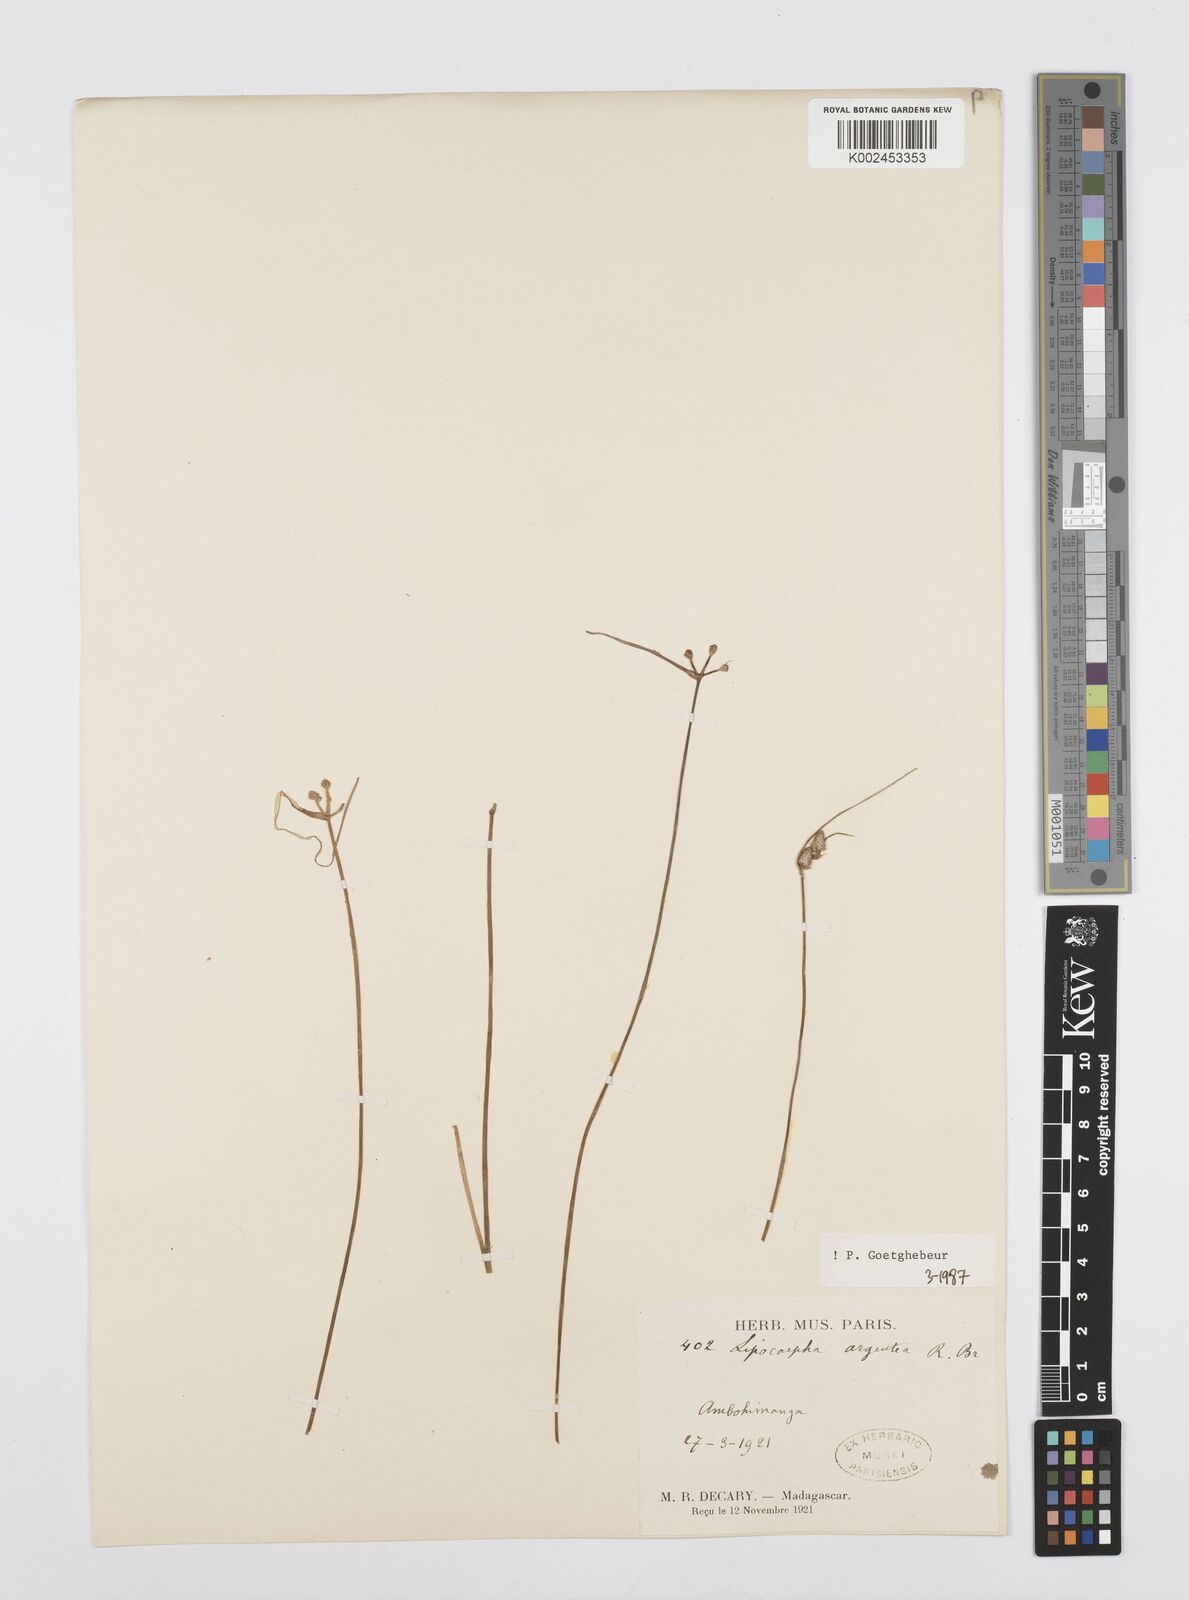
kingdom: Plantae
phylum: Tracheophyta
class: Liliopsida
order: Poales
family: Cyperaceae
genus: Cyperus
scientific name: Cyperus
